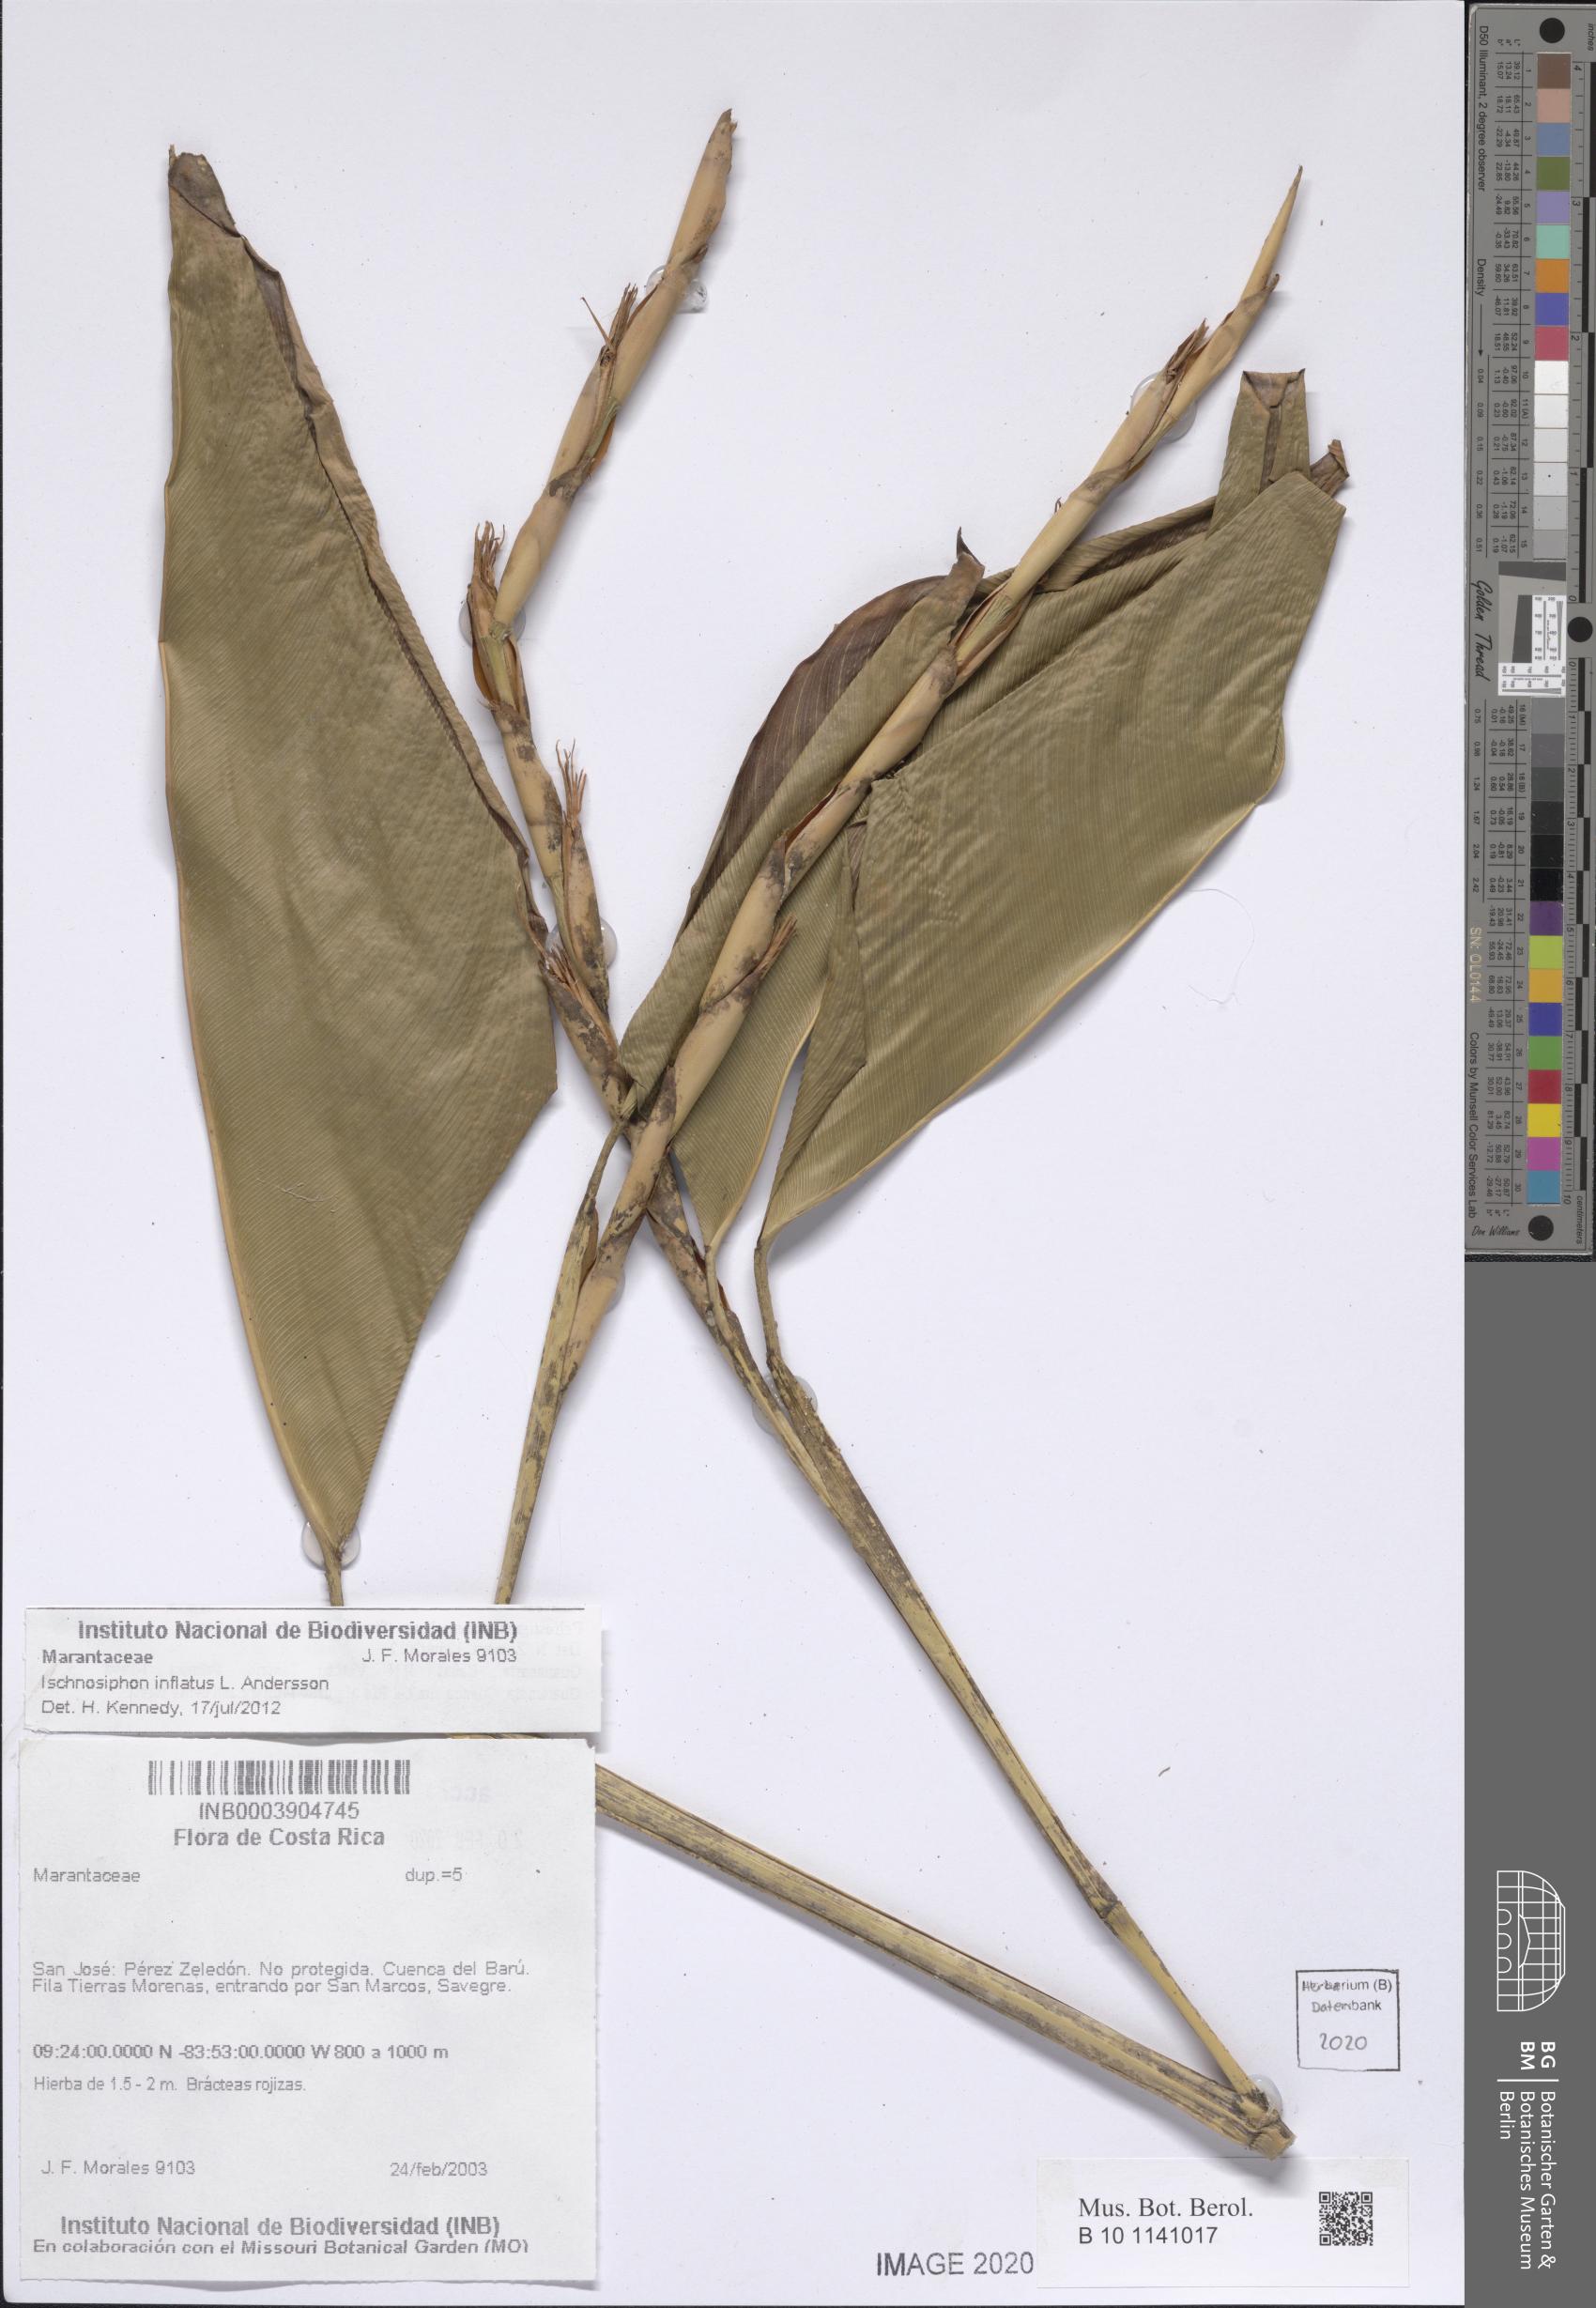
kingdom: Plantae
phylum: Tracheophyta
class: Liliopsida
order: Zingiberales
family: Marantaceae
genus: Ischnosiphon
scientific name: Ischnosiphon inflatus
